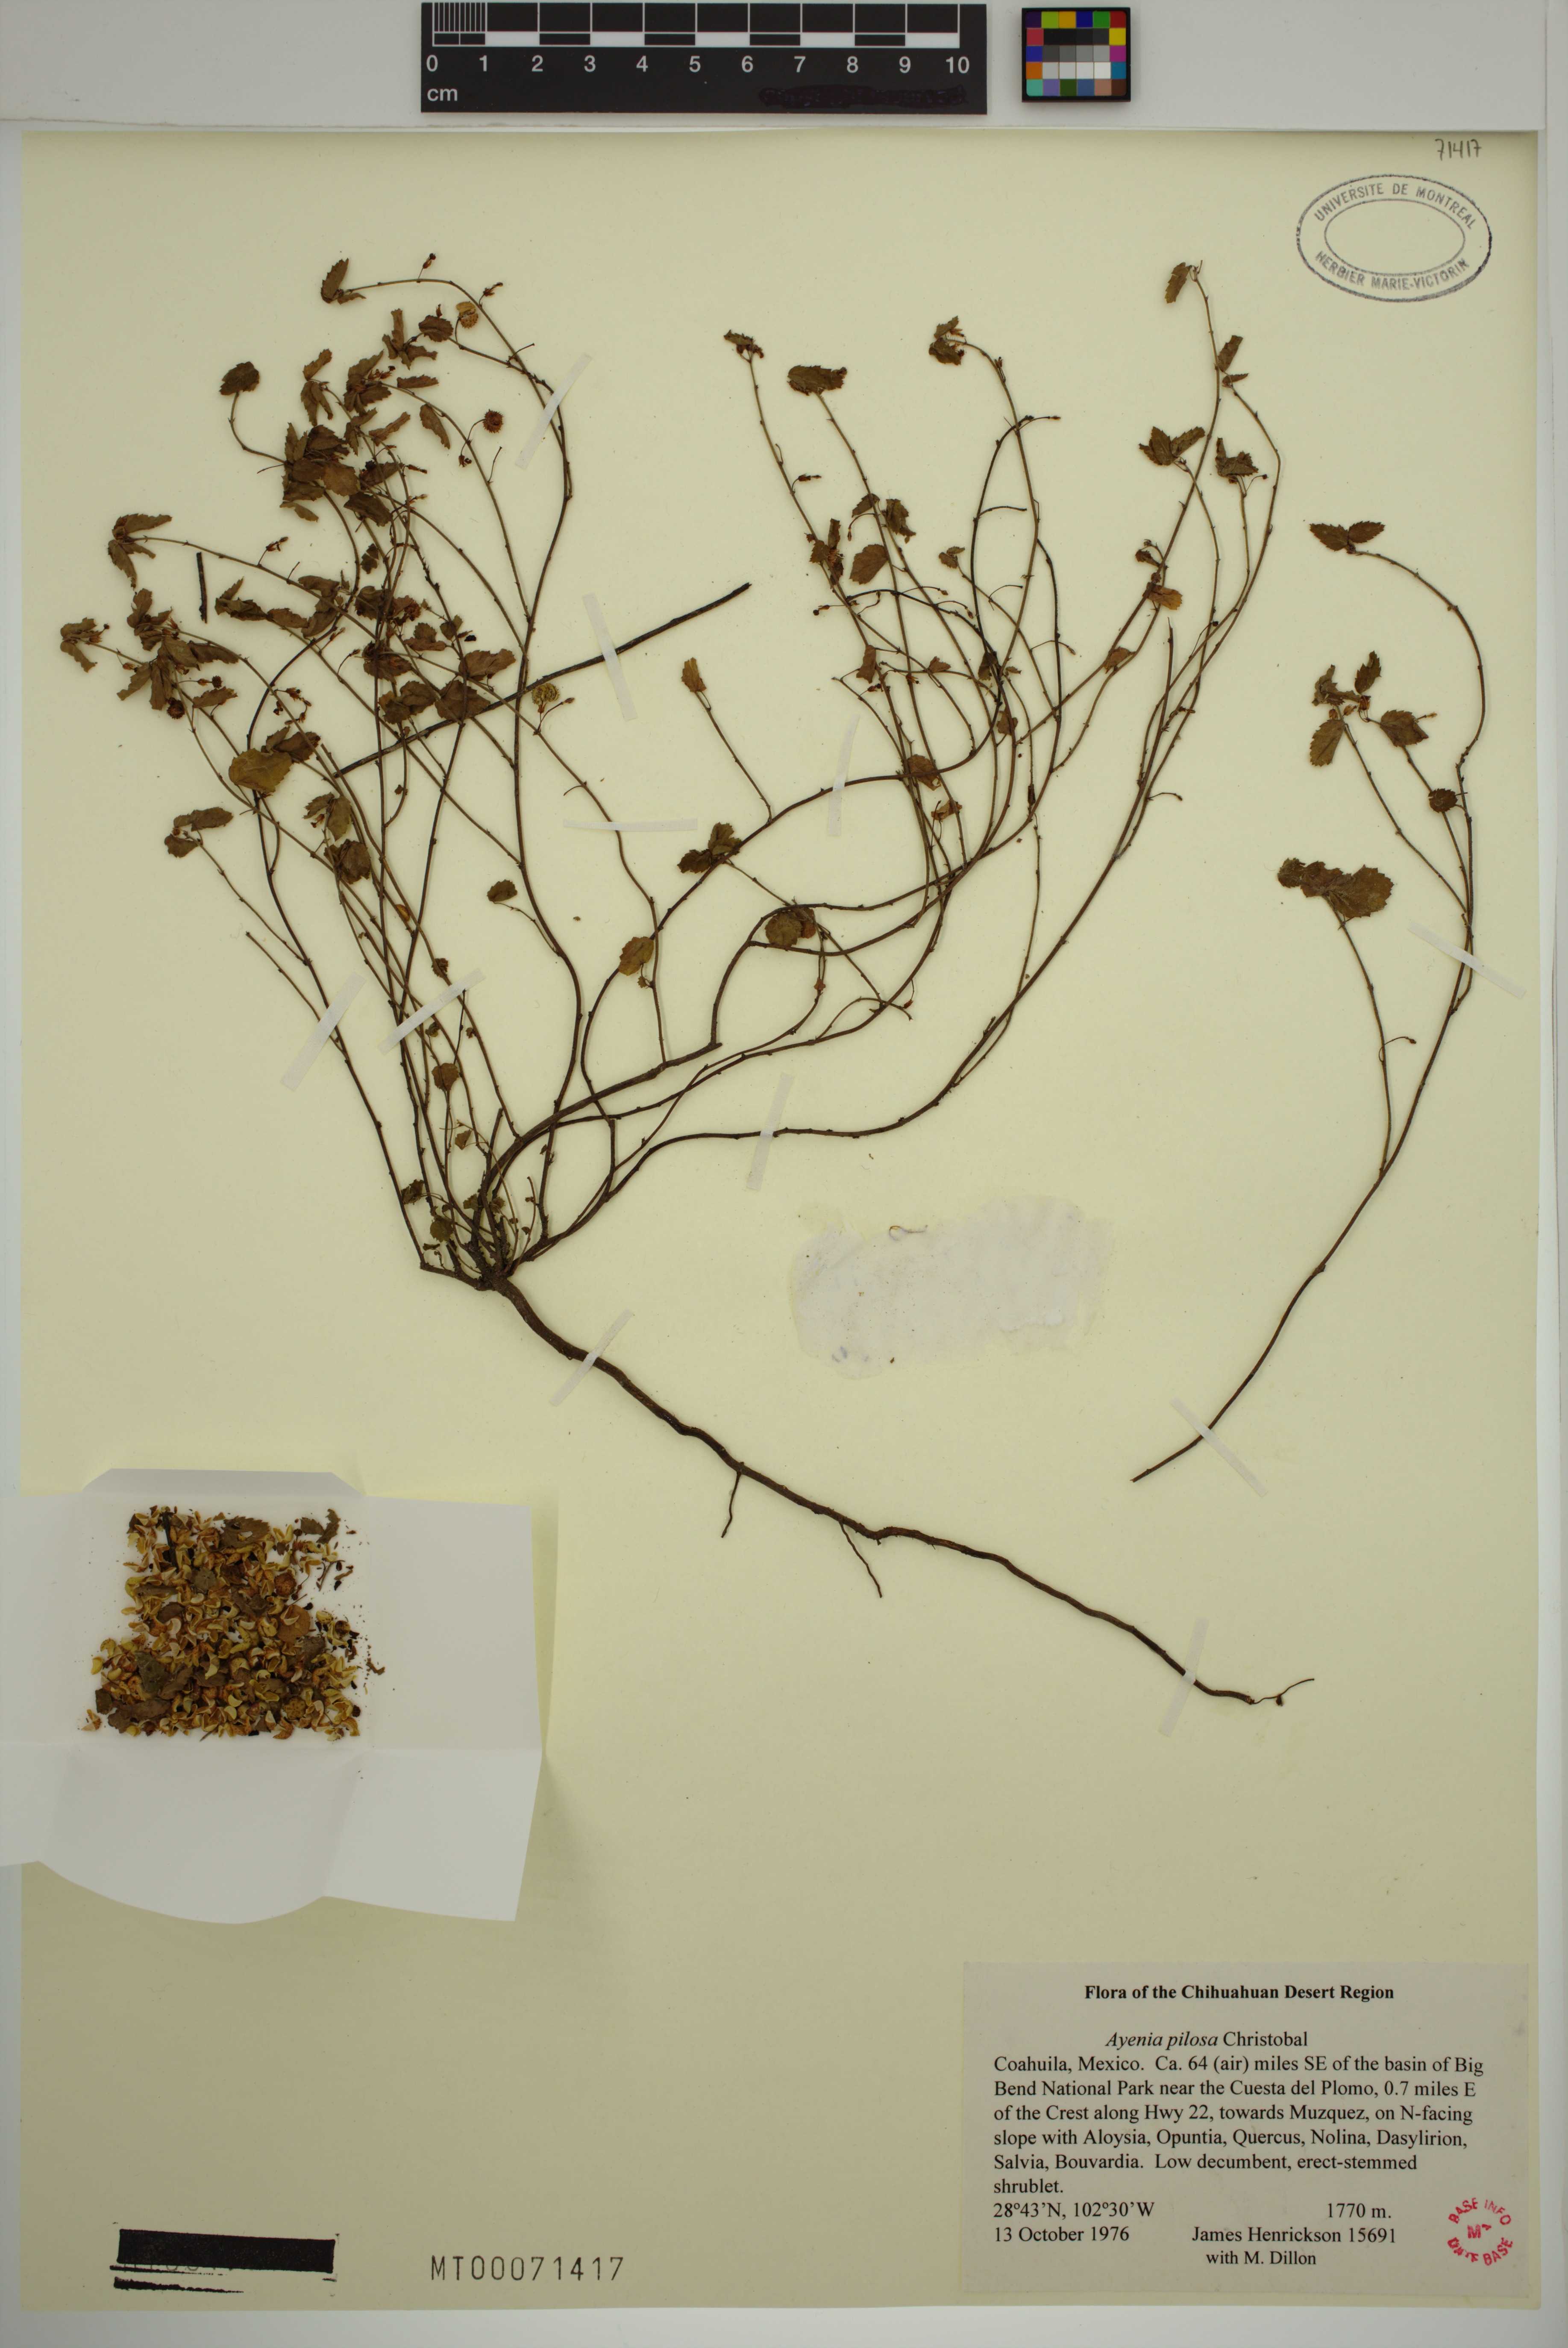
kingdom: Plantae
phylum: Tracheophyta
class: Magnoliopsida
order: Malvales
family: Malvaceae
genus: Ayenia
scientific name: Ayenia pilosa
